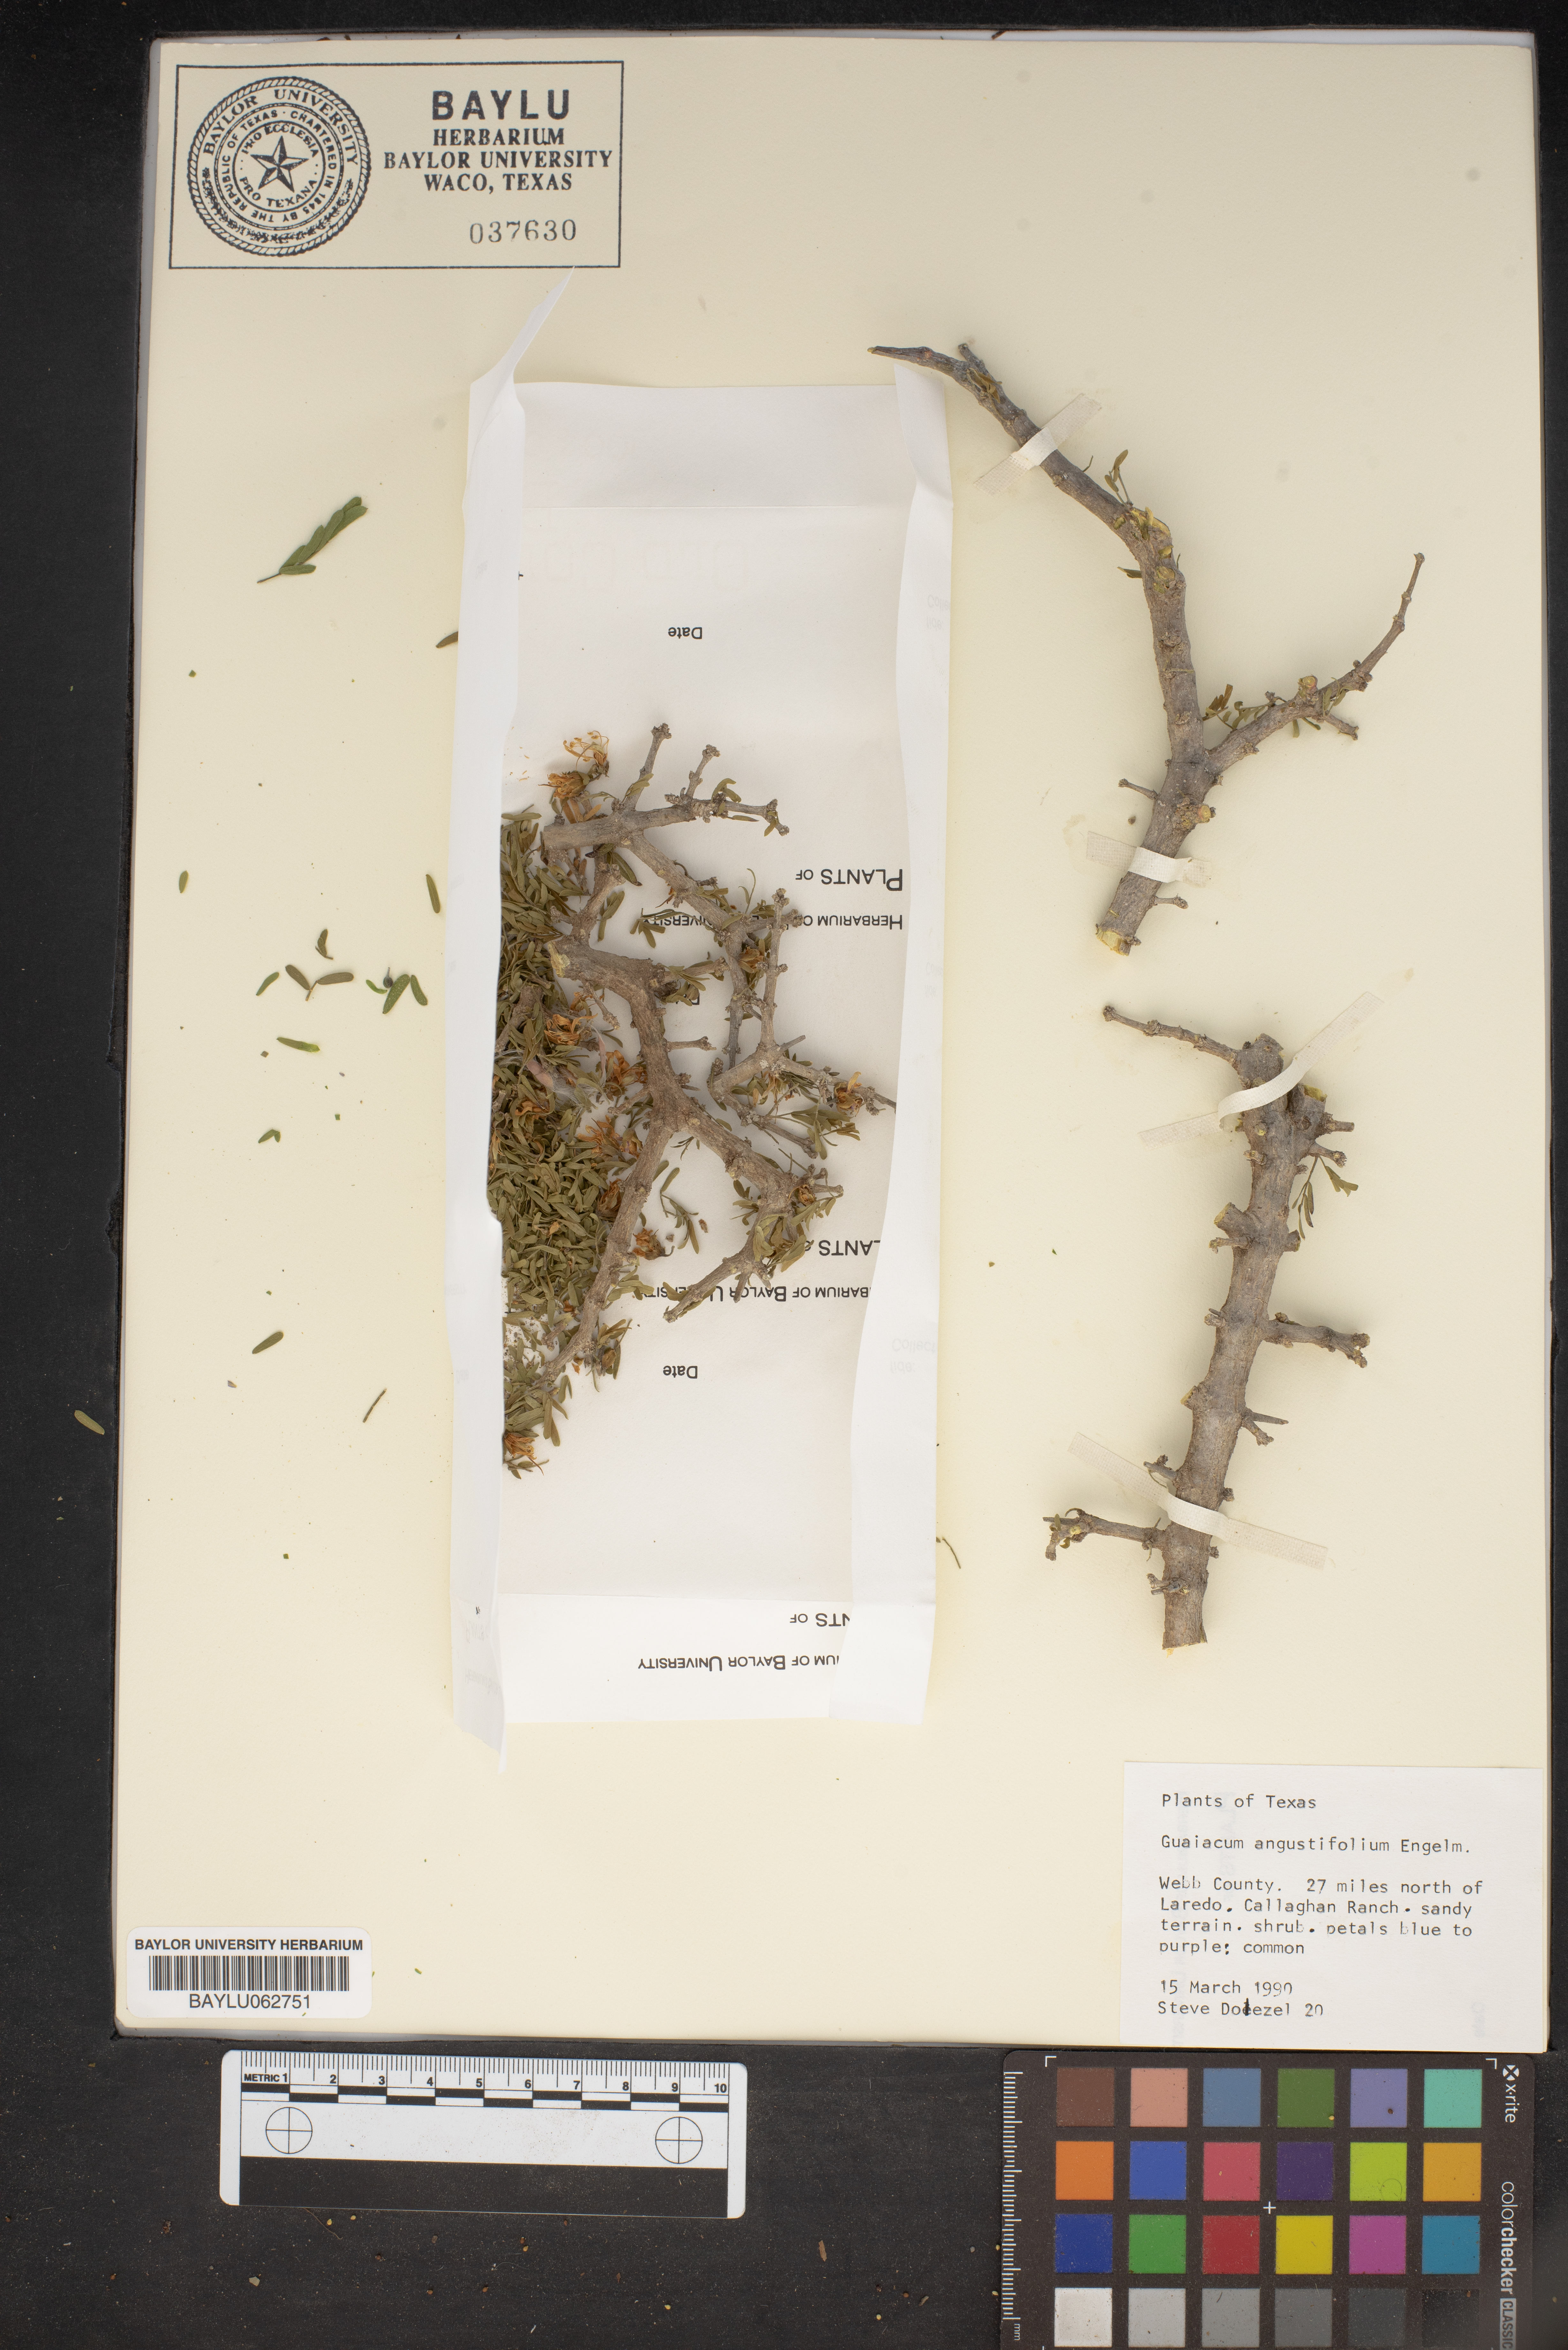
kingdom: Plantae
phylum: Tracheophyta
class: Magnoliopsida
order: Zygophyllales
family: Zygophyllaceae
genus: Porlieria
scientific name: Porlieria angustifolia
